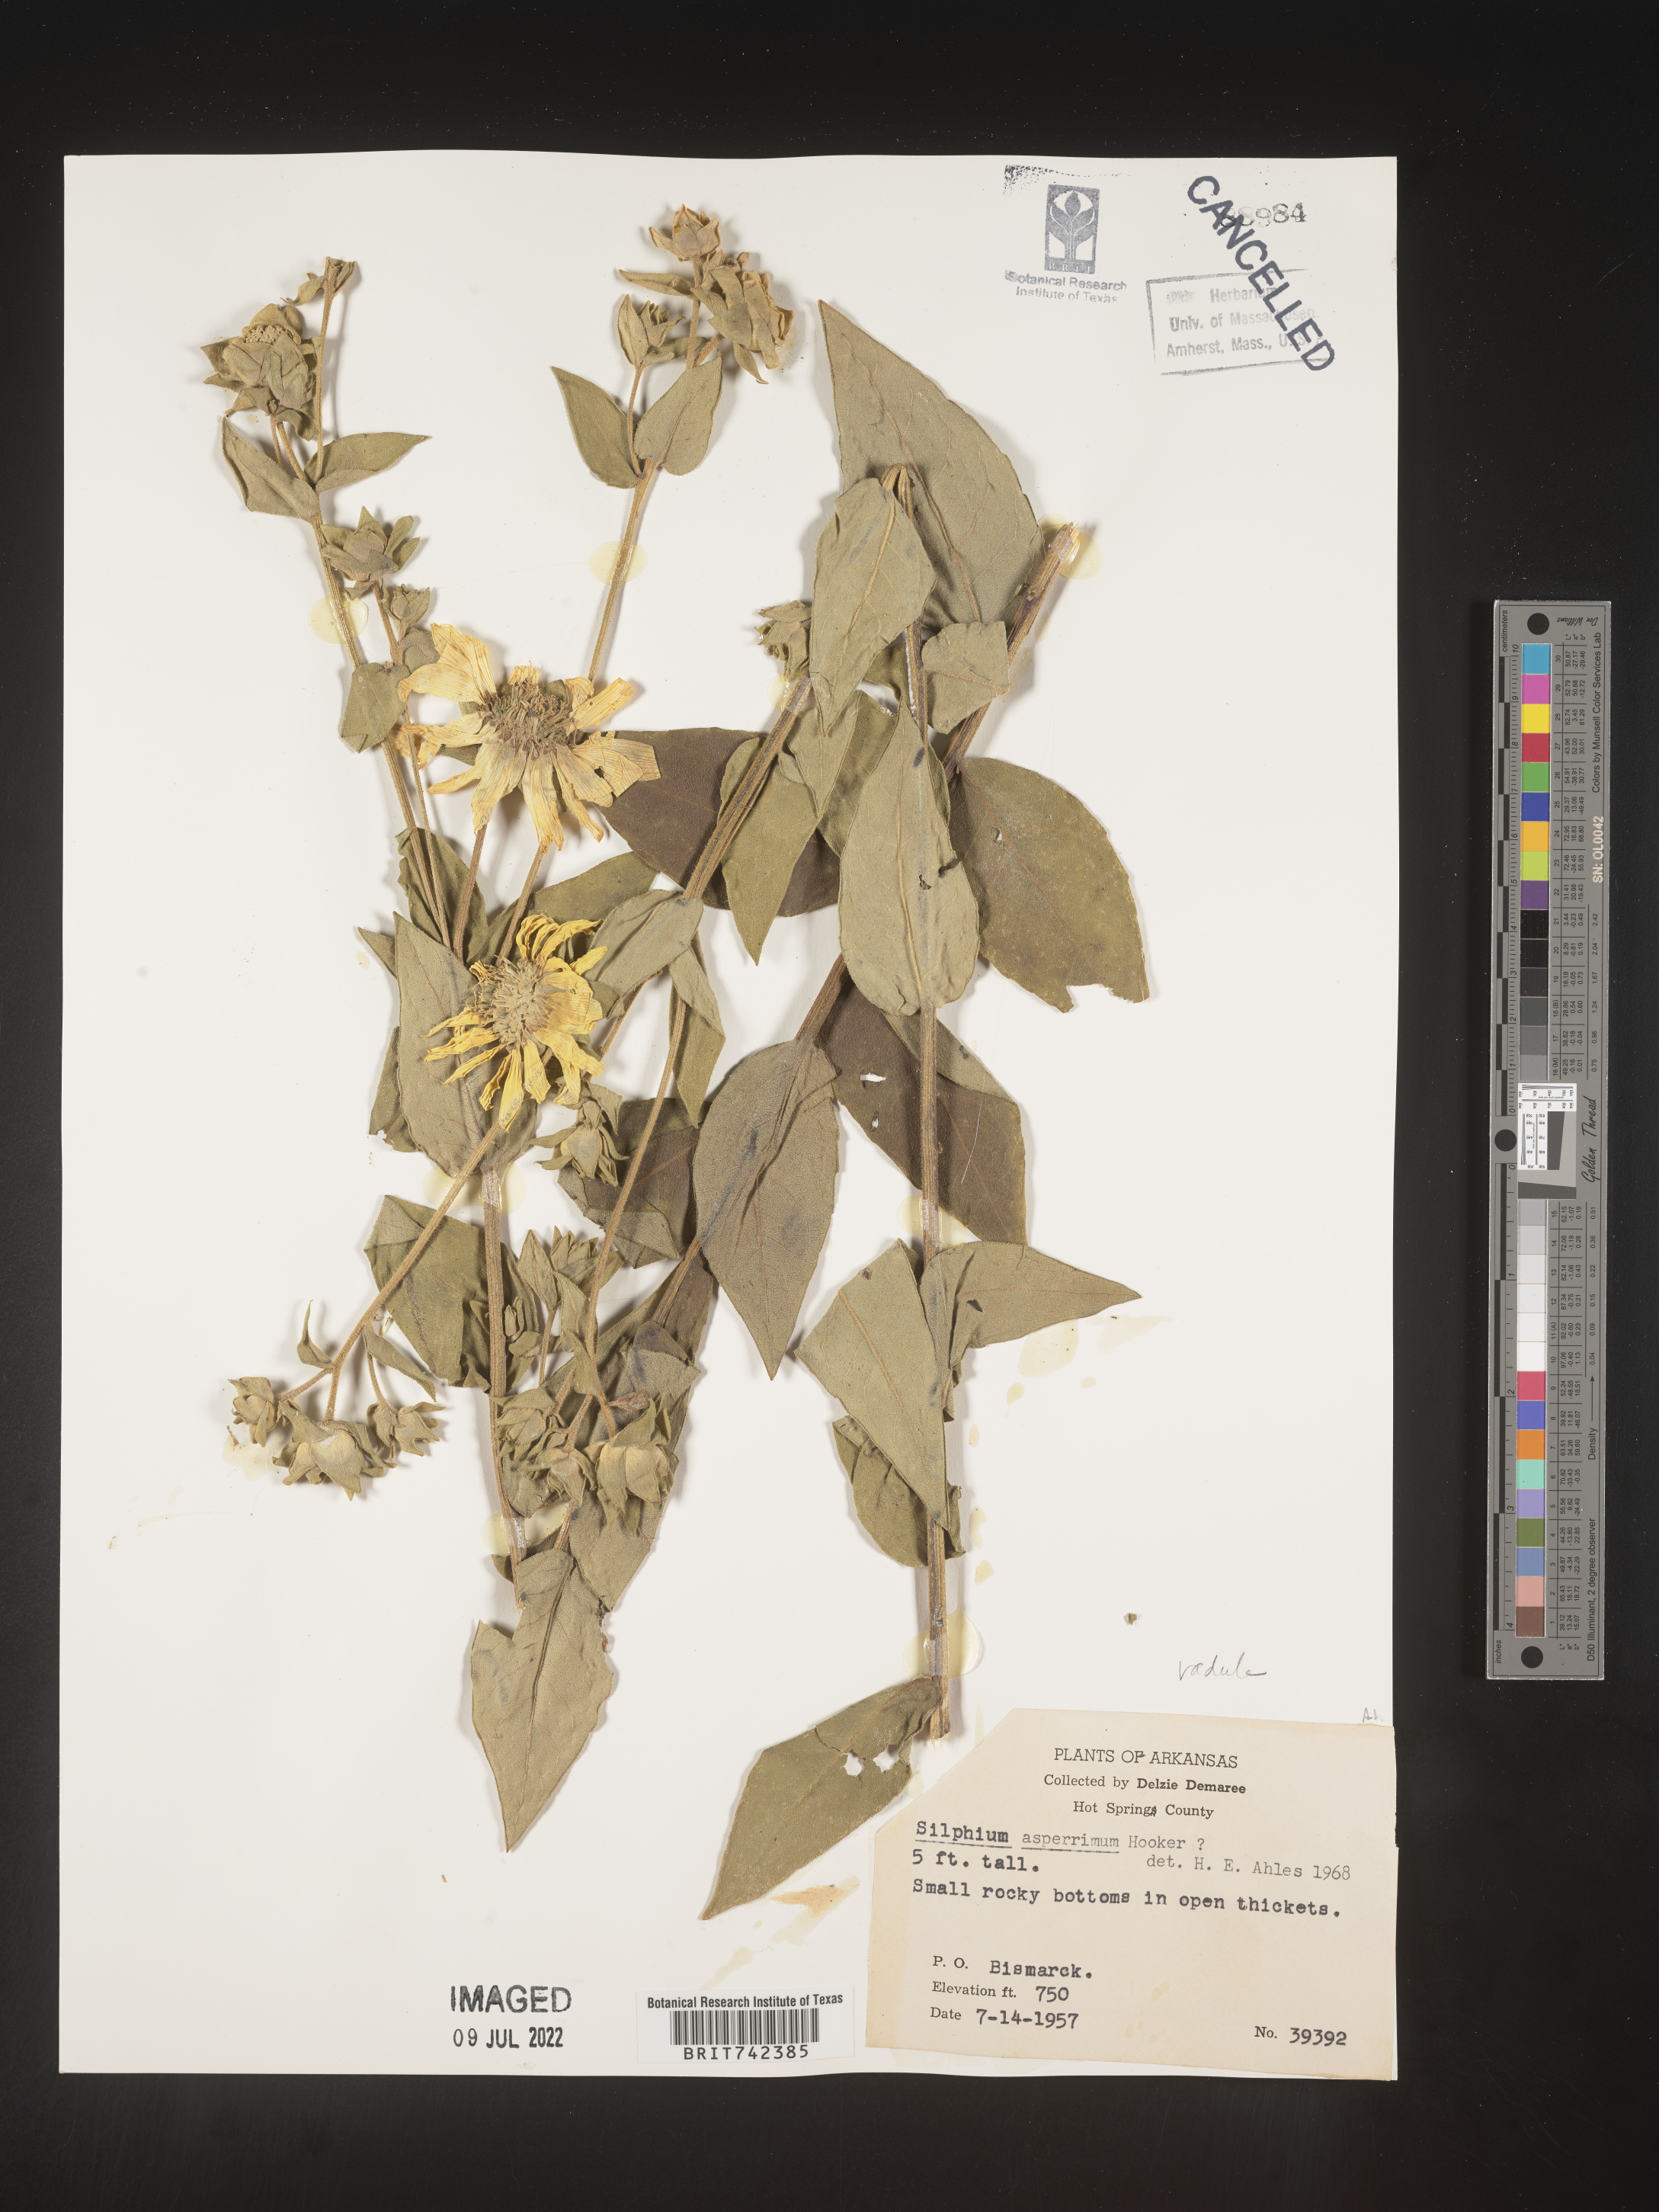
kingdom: Plantae
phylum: Tracheophyta
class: Magnoliopsida
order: Asterales
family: Asteraceae
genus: Silphium
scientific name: Silphium radula
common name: Roughleaf rosinweed
